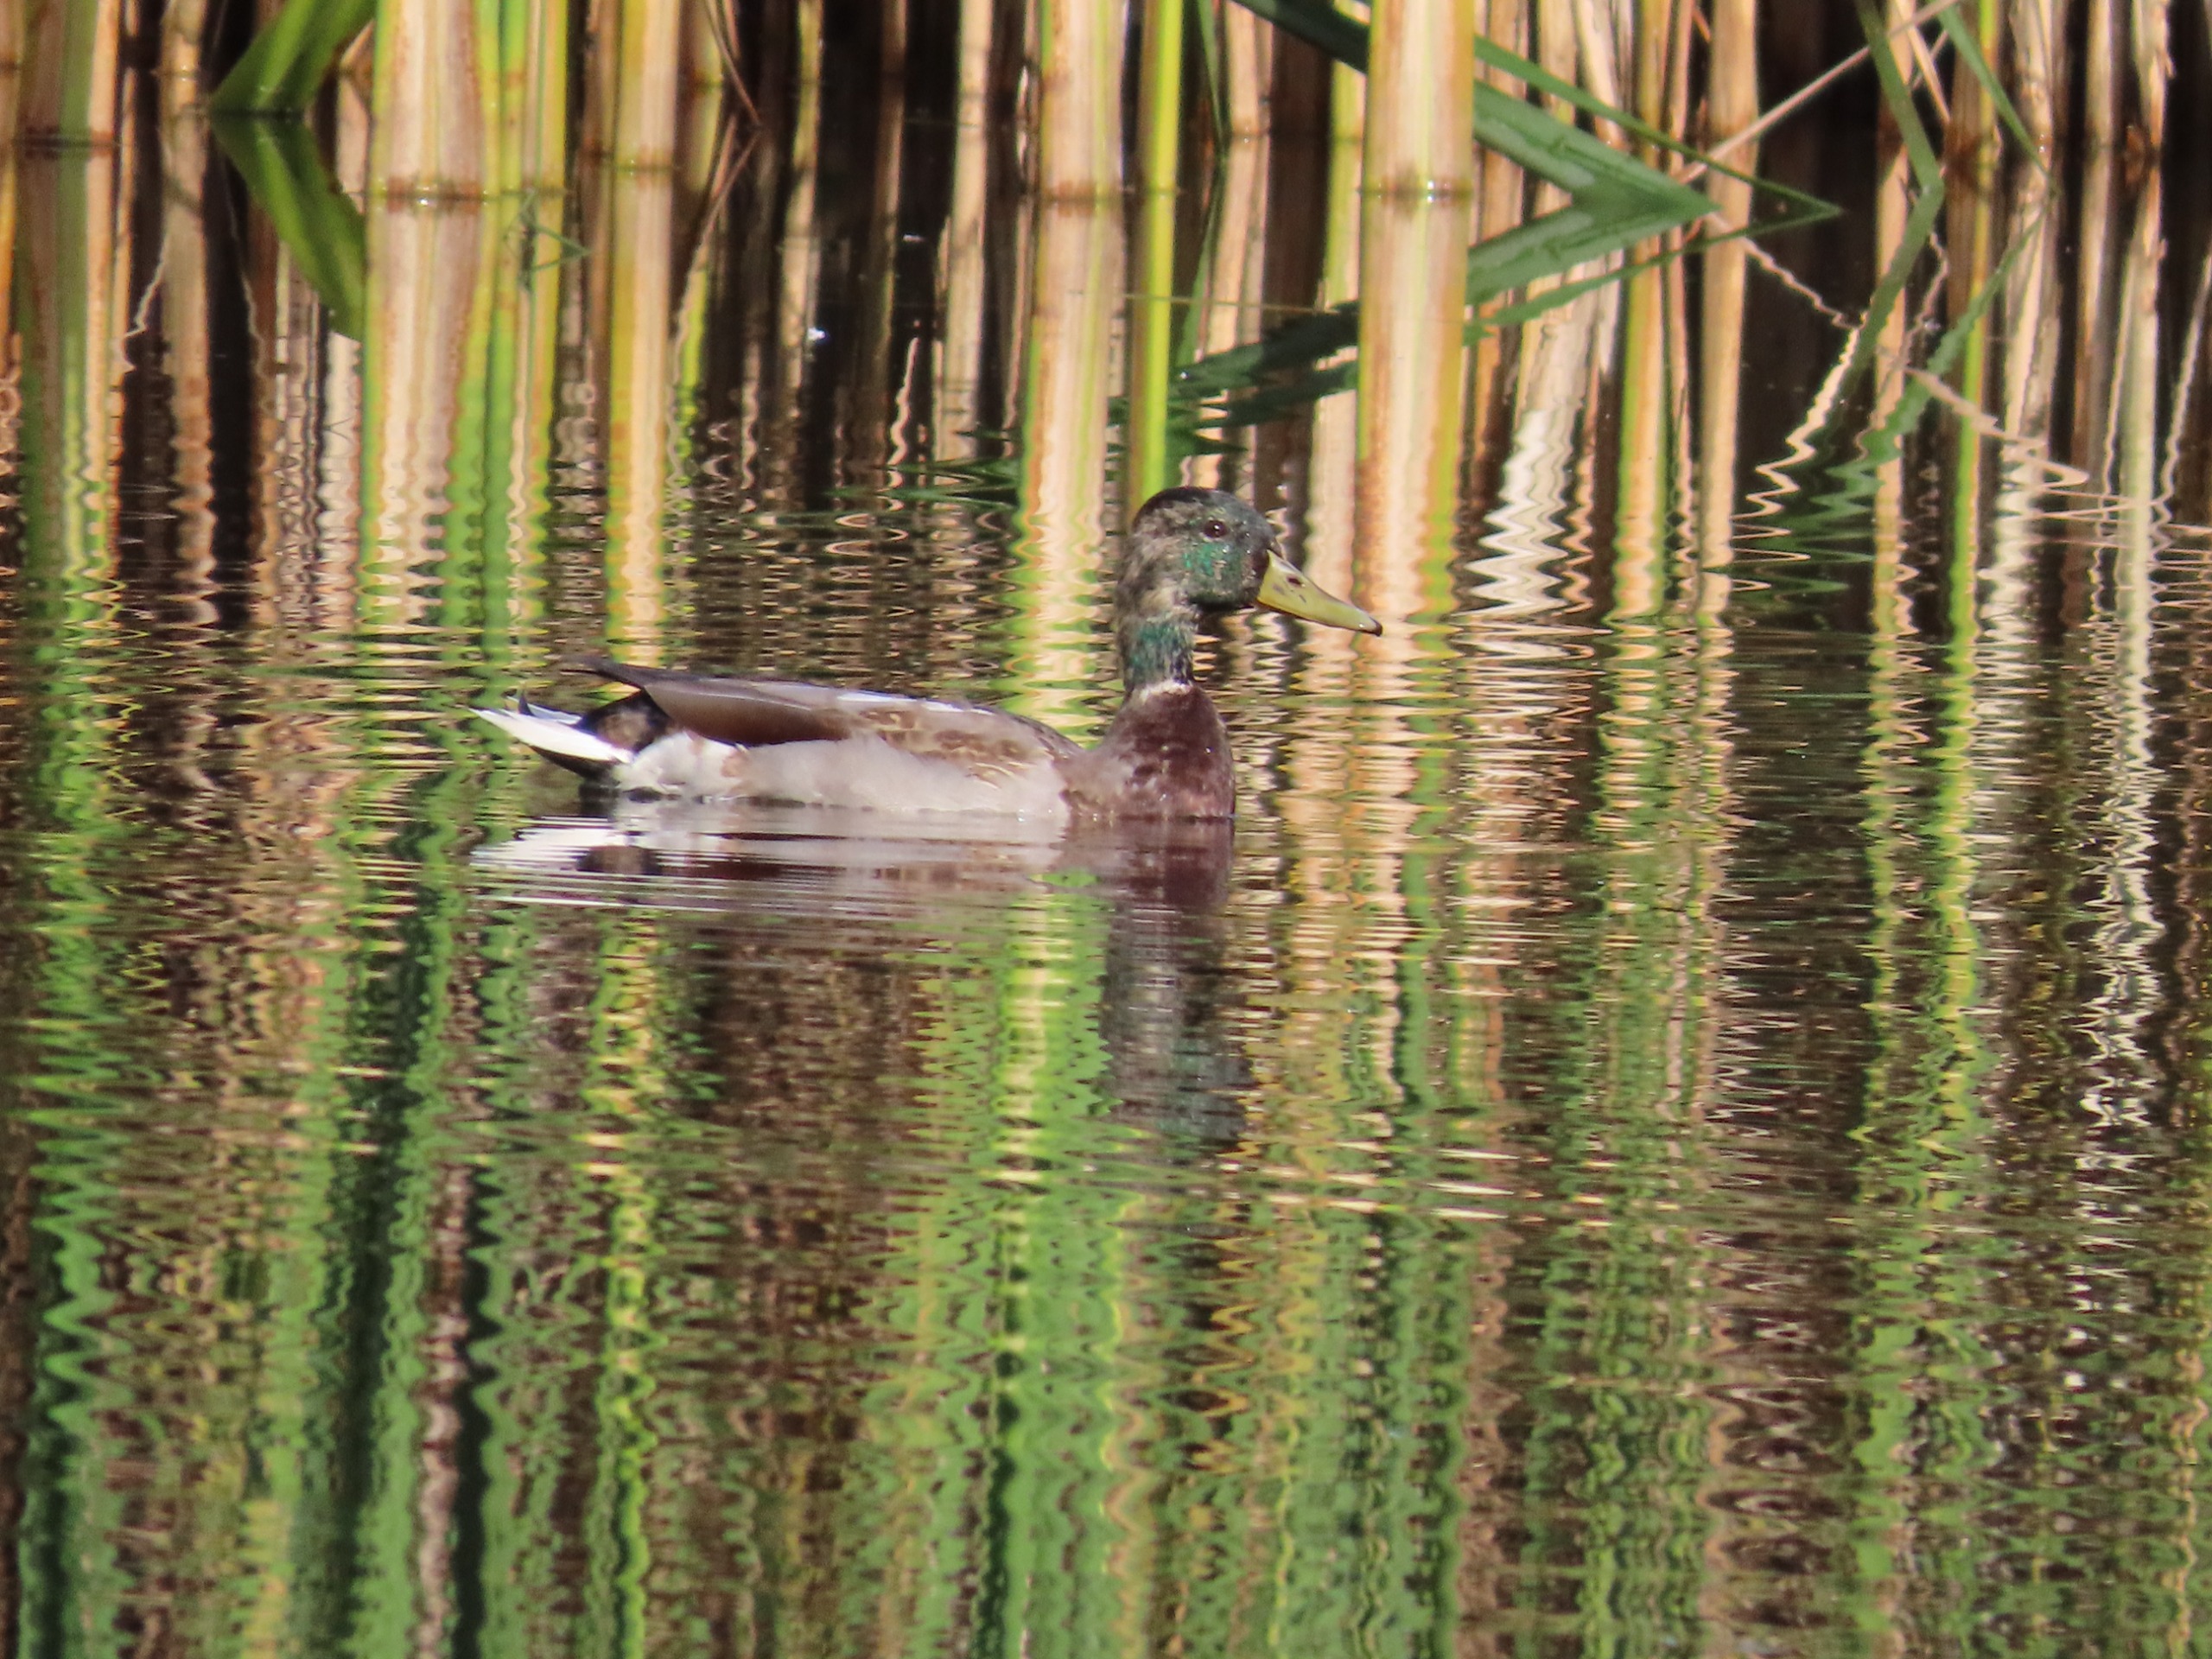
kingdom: Animalia
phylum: Chordata
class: Aves
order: Anseriformes
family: Anatidae
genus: Anas
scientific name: Anas platyrhynchos
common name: Gråand
